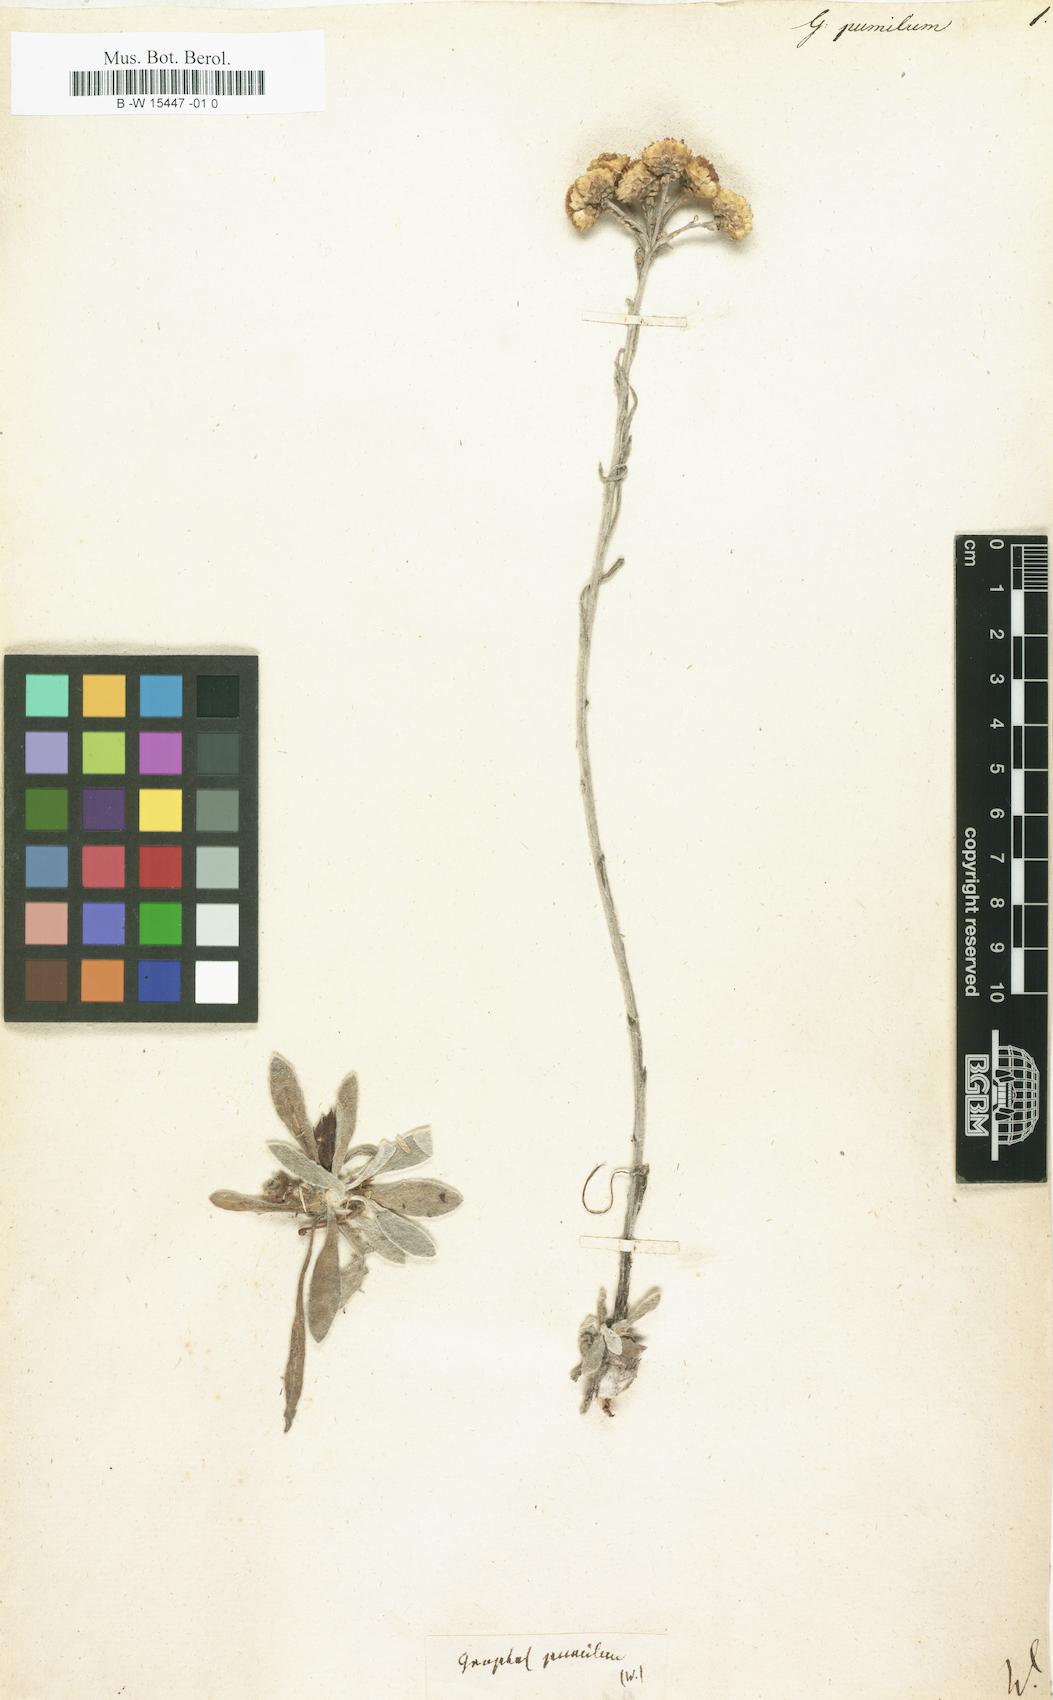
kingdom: Plantae
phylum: Tracheophyta
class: Magnoliopsida
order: Asterales
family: Asteraceae
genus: Helichrysum
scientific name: Helichrysum teretifolium
